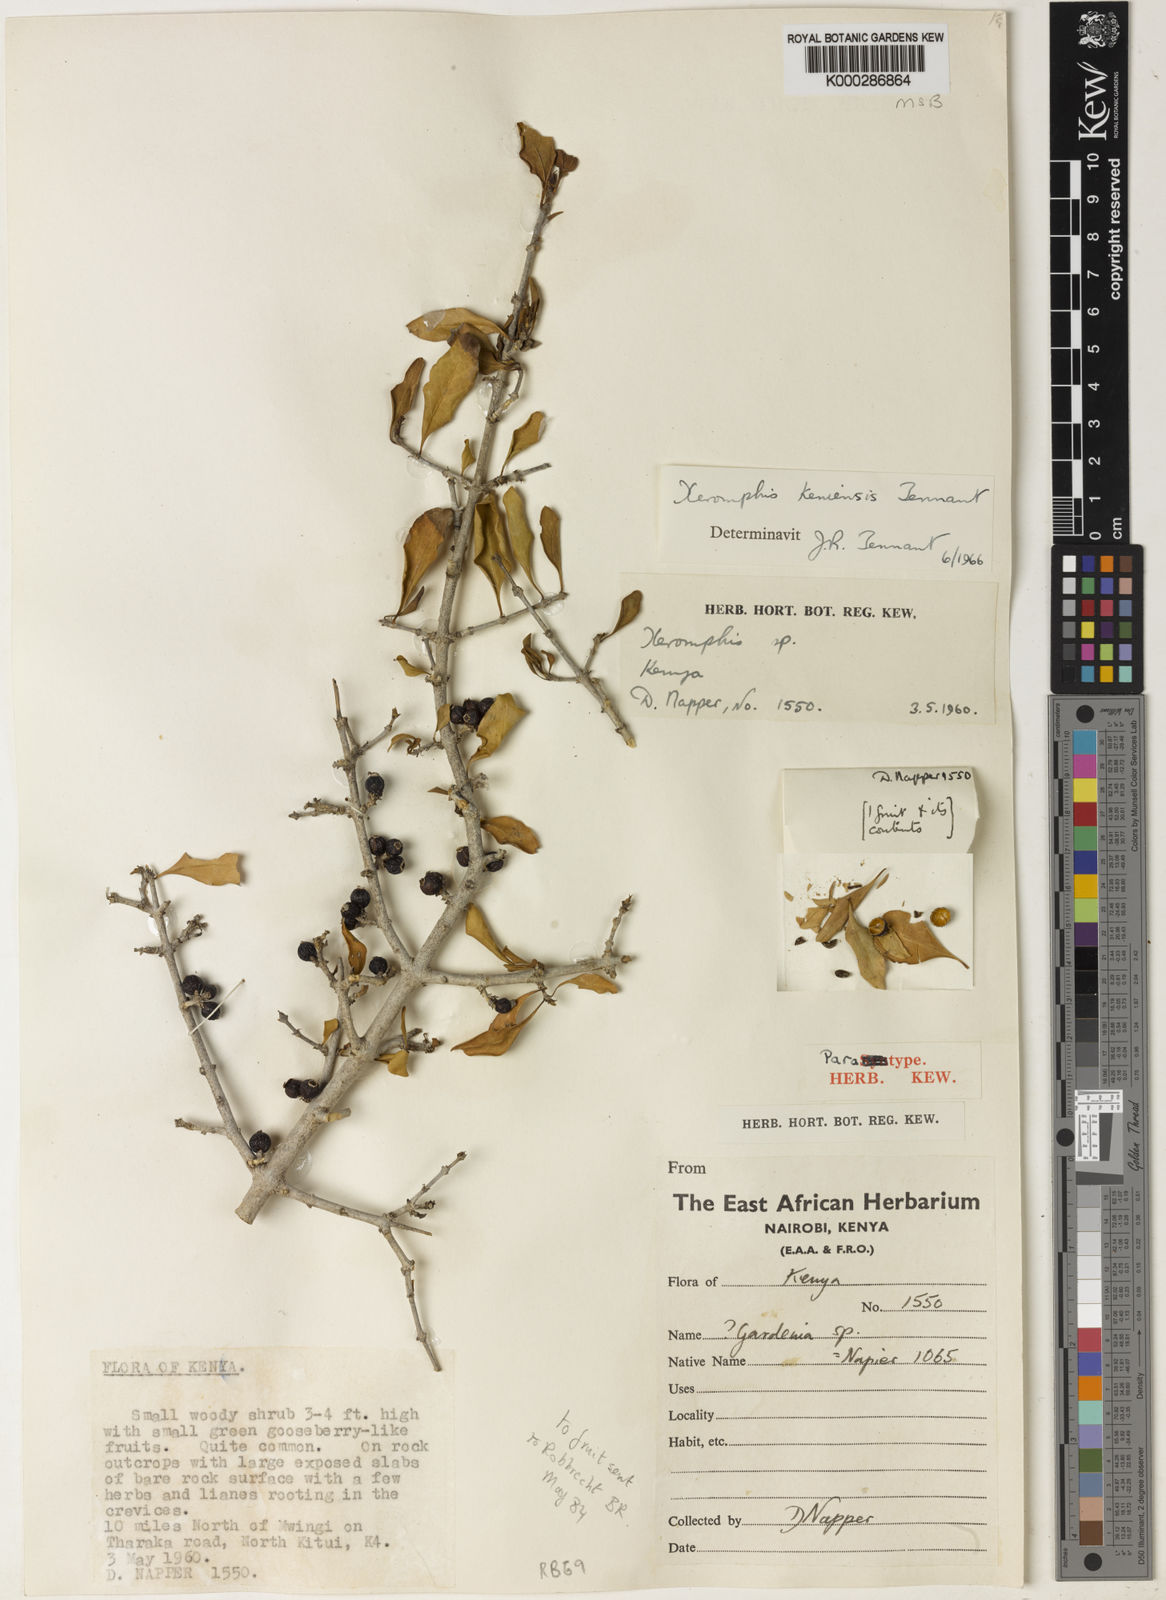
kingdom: Plantae
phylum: Tracheophyta
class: Magnoliopsida
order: Gentianales
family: Rubiaceae
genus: Tennantia
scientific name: Tennantia sennii
